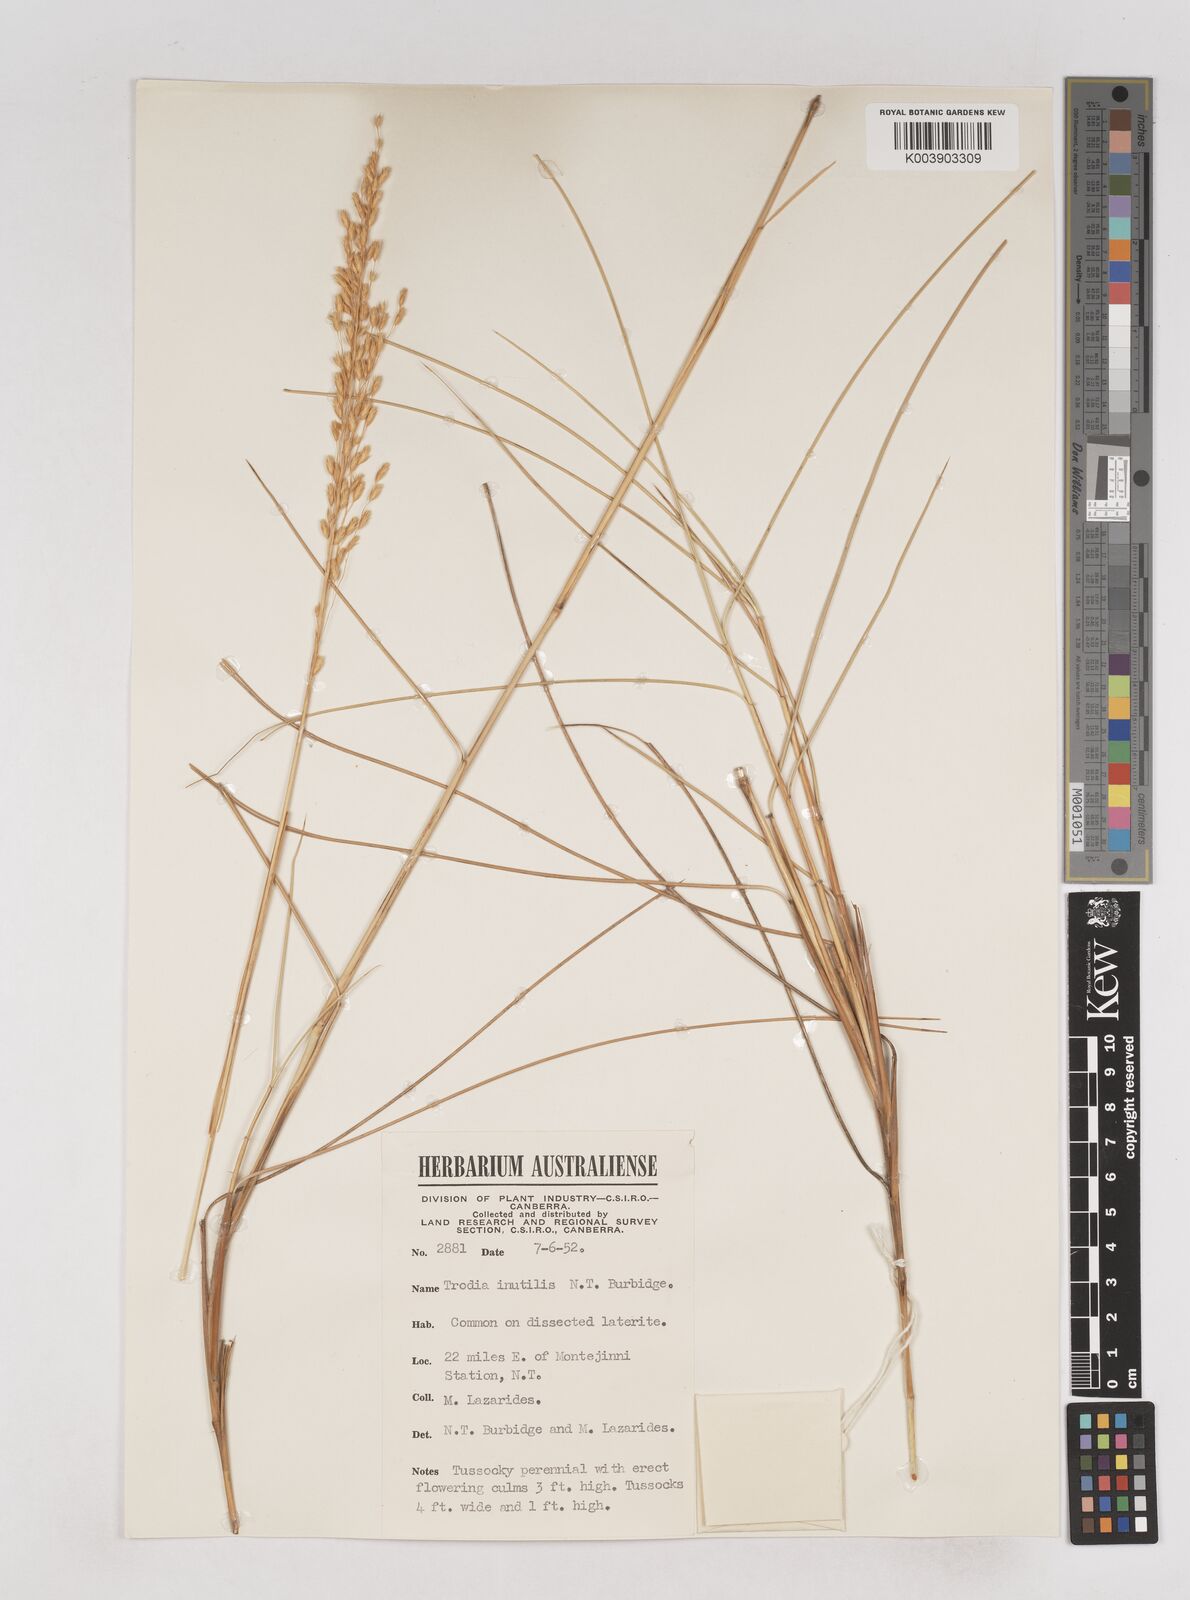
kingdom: Plantae
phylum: Tracheophyta
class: Liliopsida
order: Poales
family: Poaceae
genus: Triodia
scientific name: Triodia inutilis
